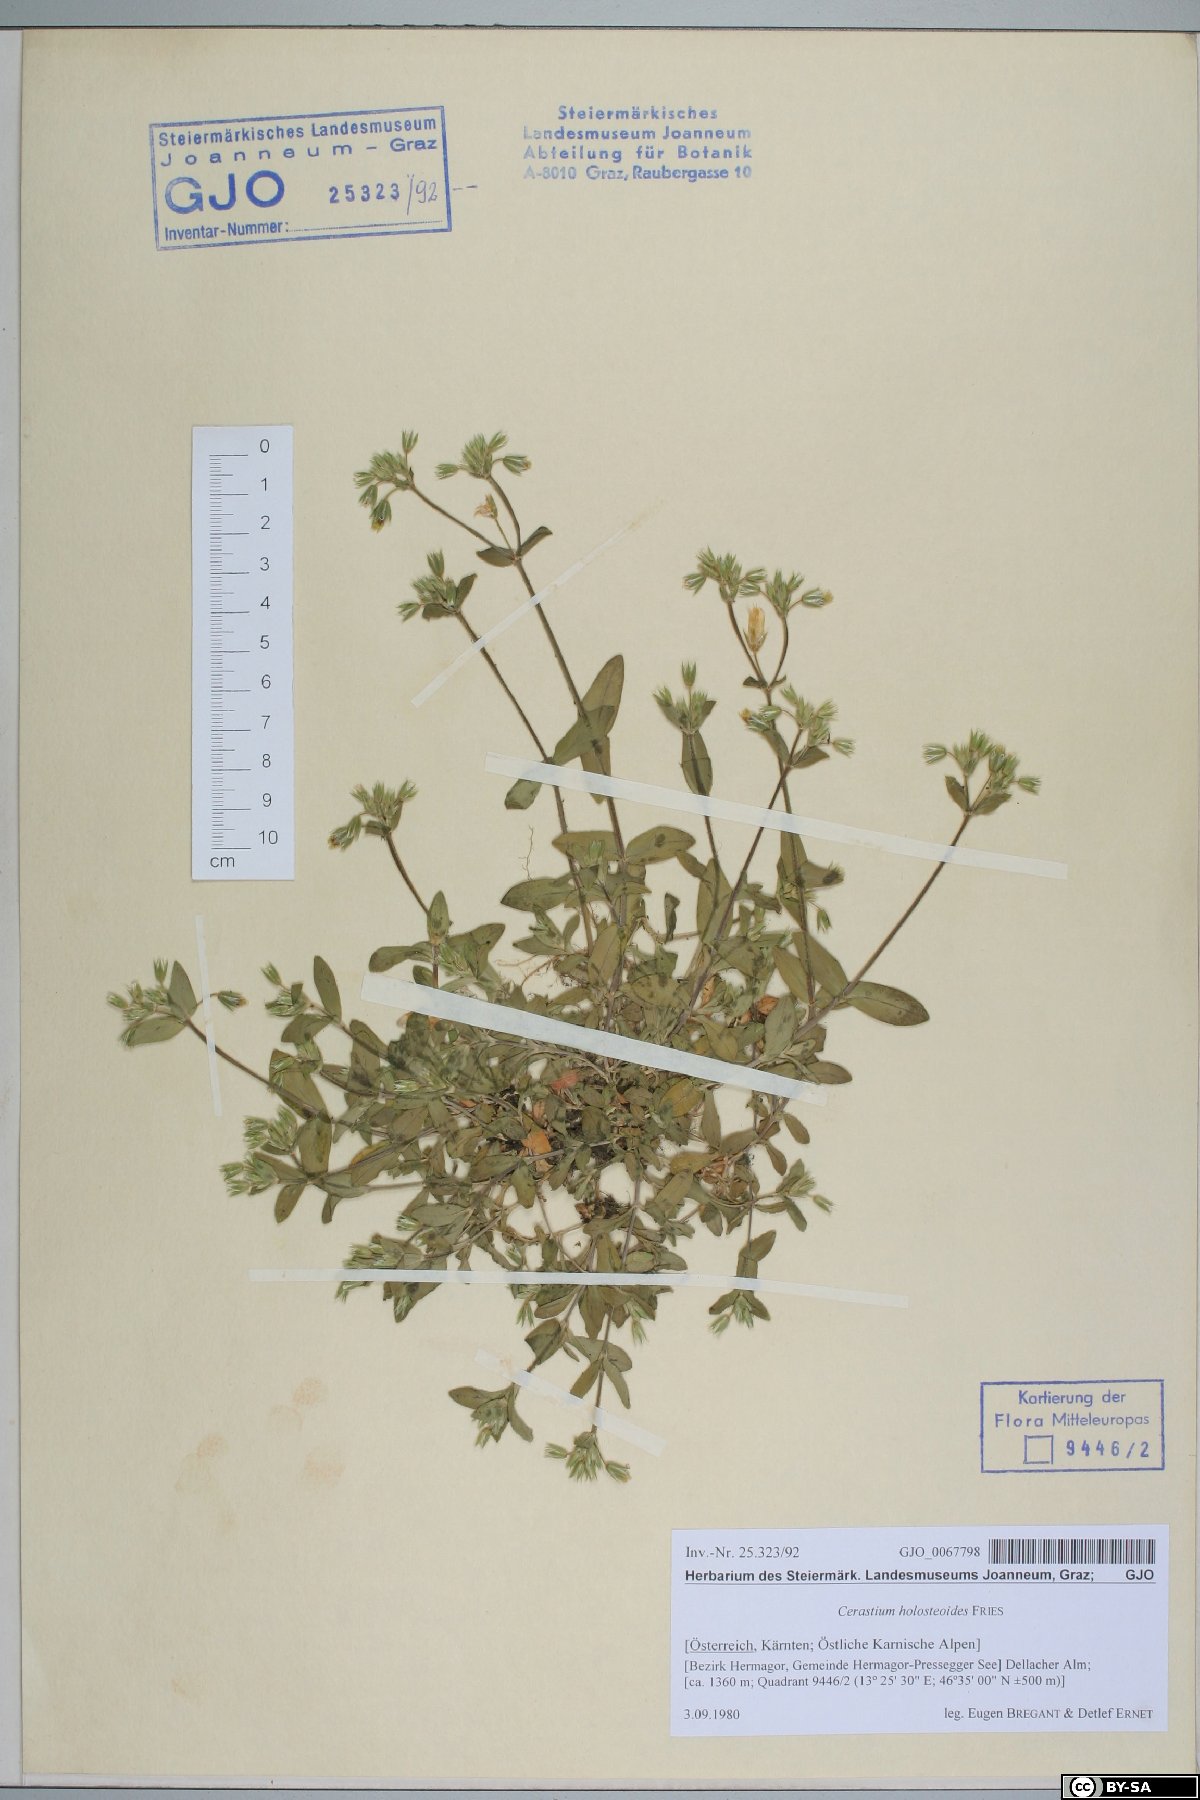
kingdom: Plantae
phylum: Tracheophyta
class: Magnoliopsida
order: Caryophyllales
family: Caryophyllaceae
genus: Cerastium
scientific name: Cerastium holosteoides
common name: Big chickweed
